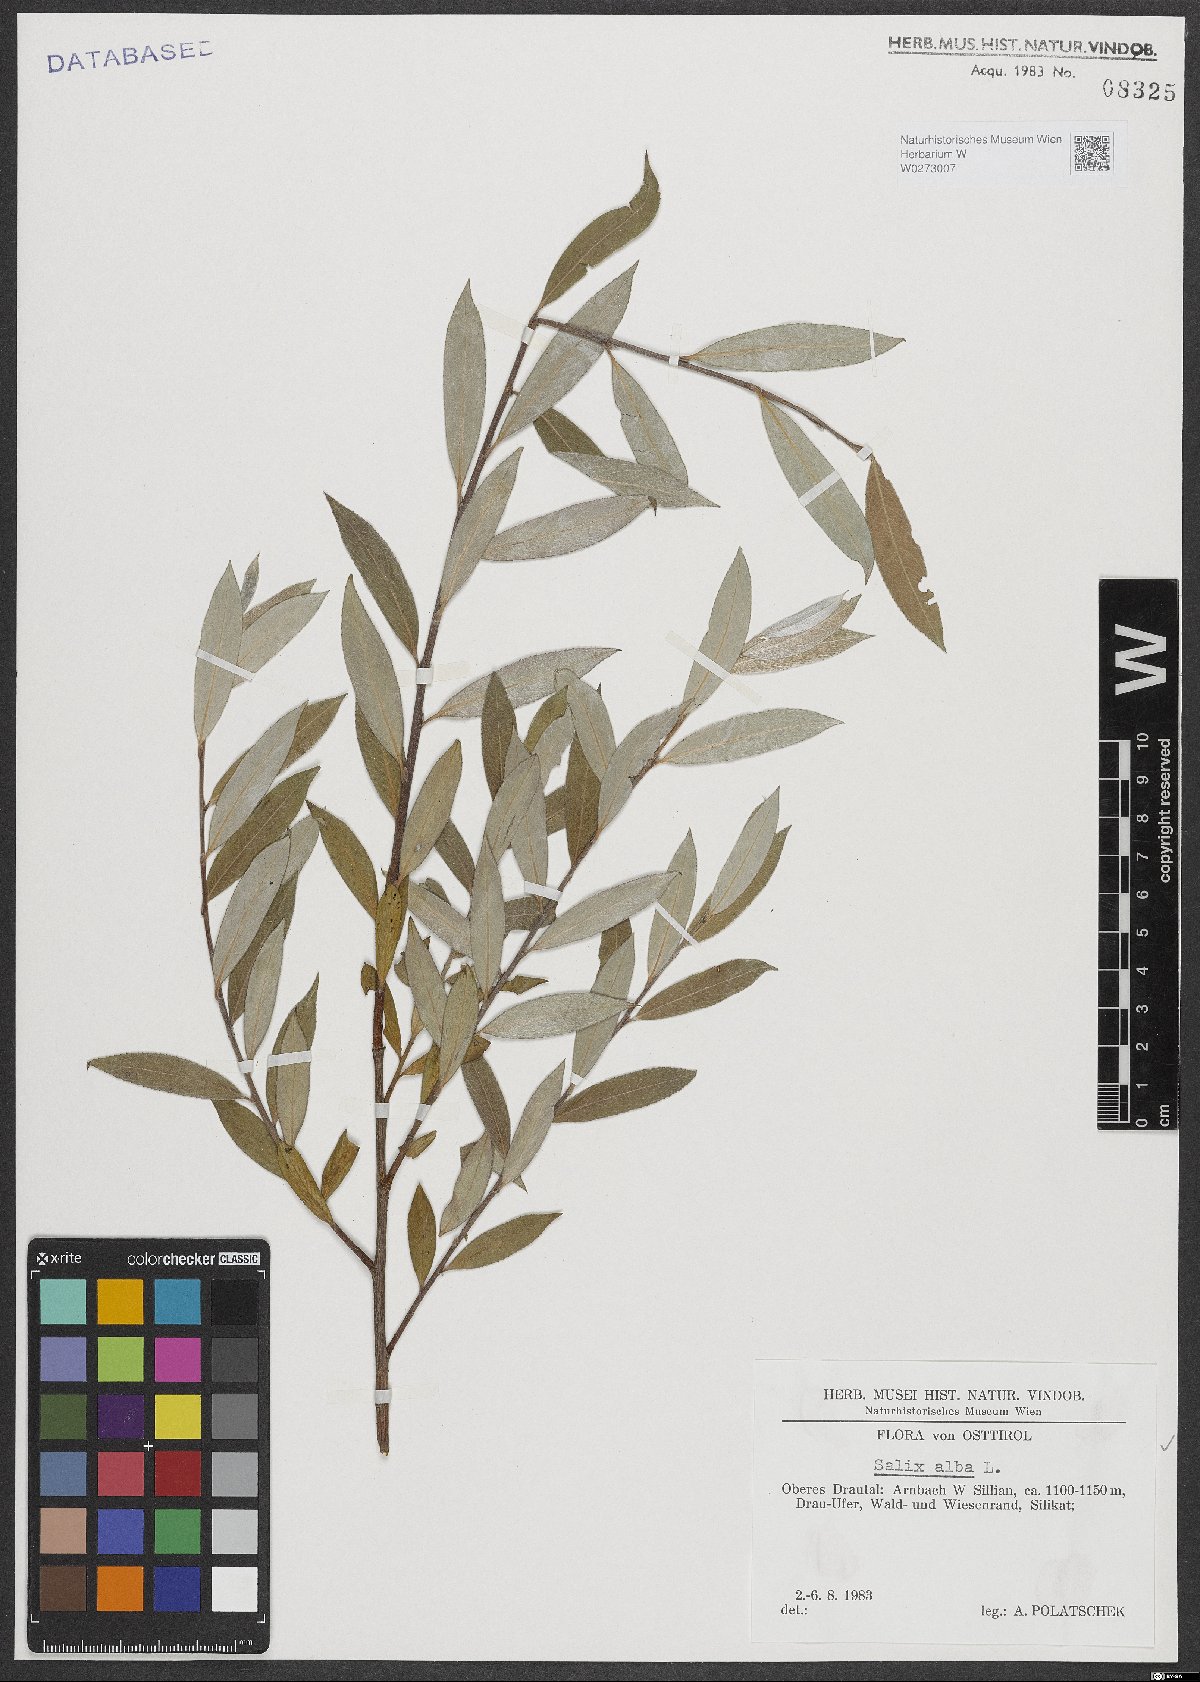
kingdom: Plantae
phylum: Tracheophyta
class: Magnoliopsida
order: Malpighiales
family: Salicaceae
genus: Salix
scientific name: Salix alba
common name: White willow
